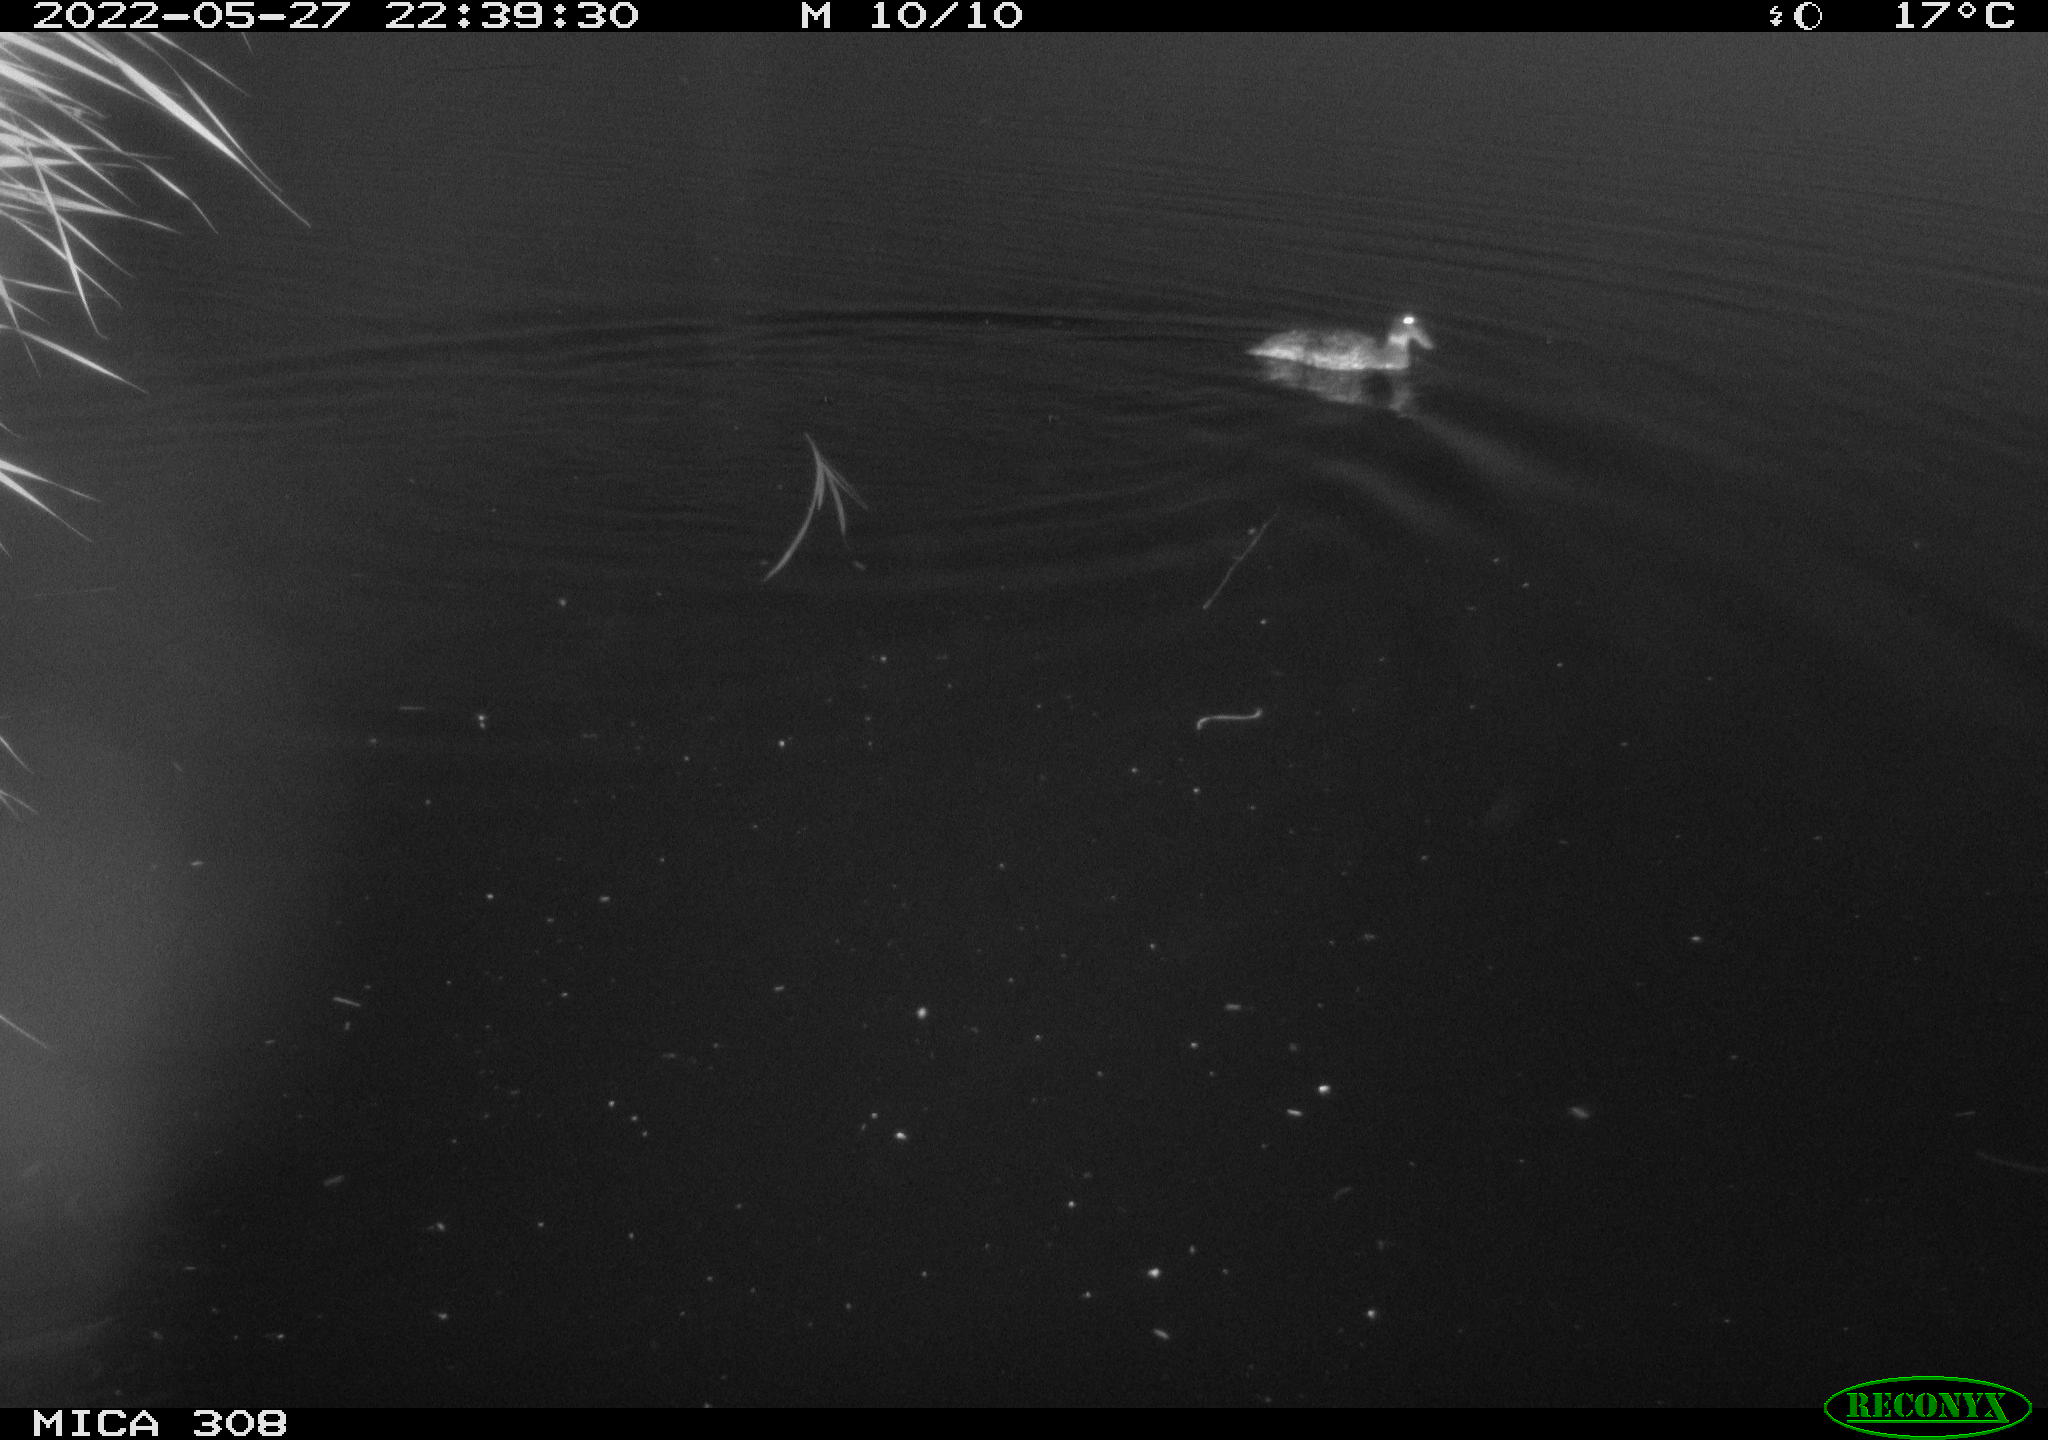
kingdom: Animalia
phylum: Chordata
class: Aves
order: Gruiformes
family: Rallidae
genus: Gallinula
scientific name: Gallinula chloropus
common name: Common moorhen
